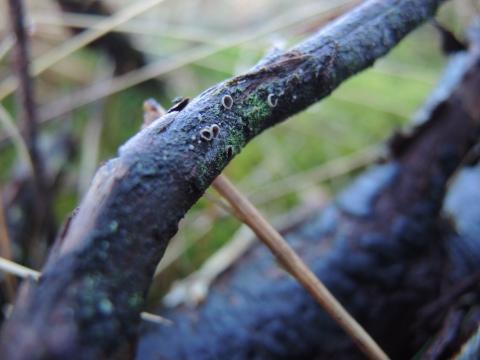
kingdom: Fungi
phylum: Basidiomycota
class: Agaricomycetes
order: Agaricales
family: Pleurotaceae
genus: Resupinatus
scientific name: Resupinatus griseopallidus
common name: ene-barkhat
